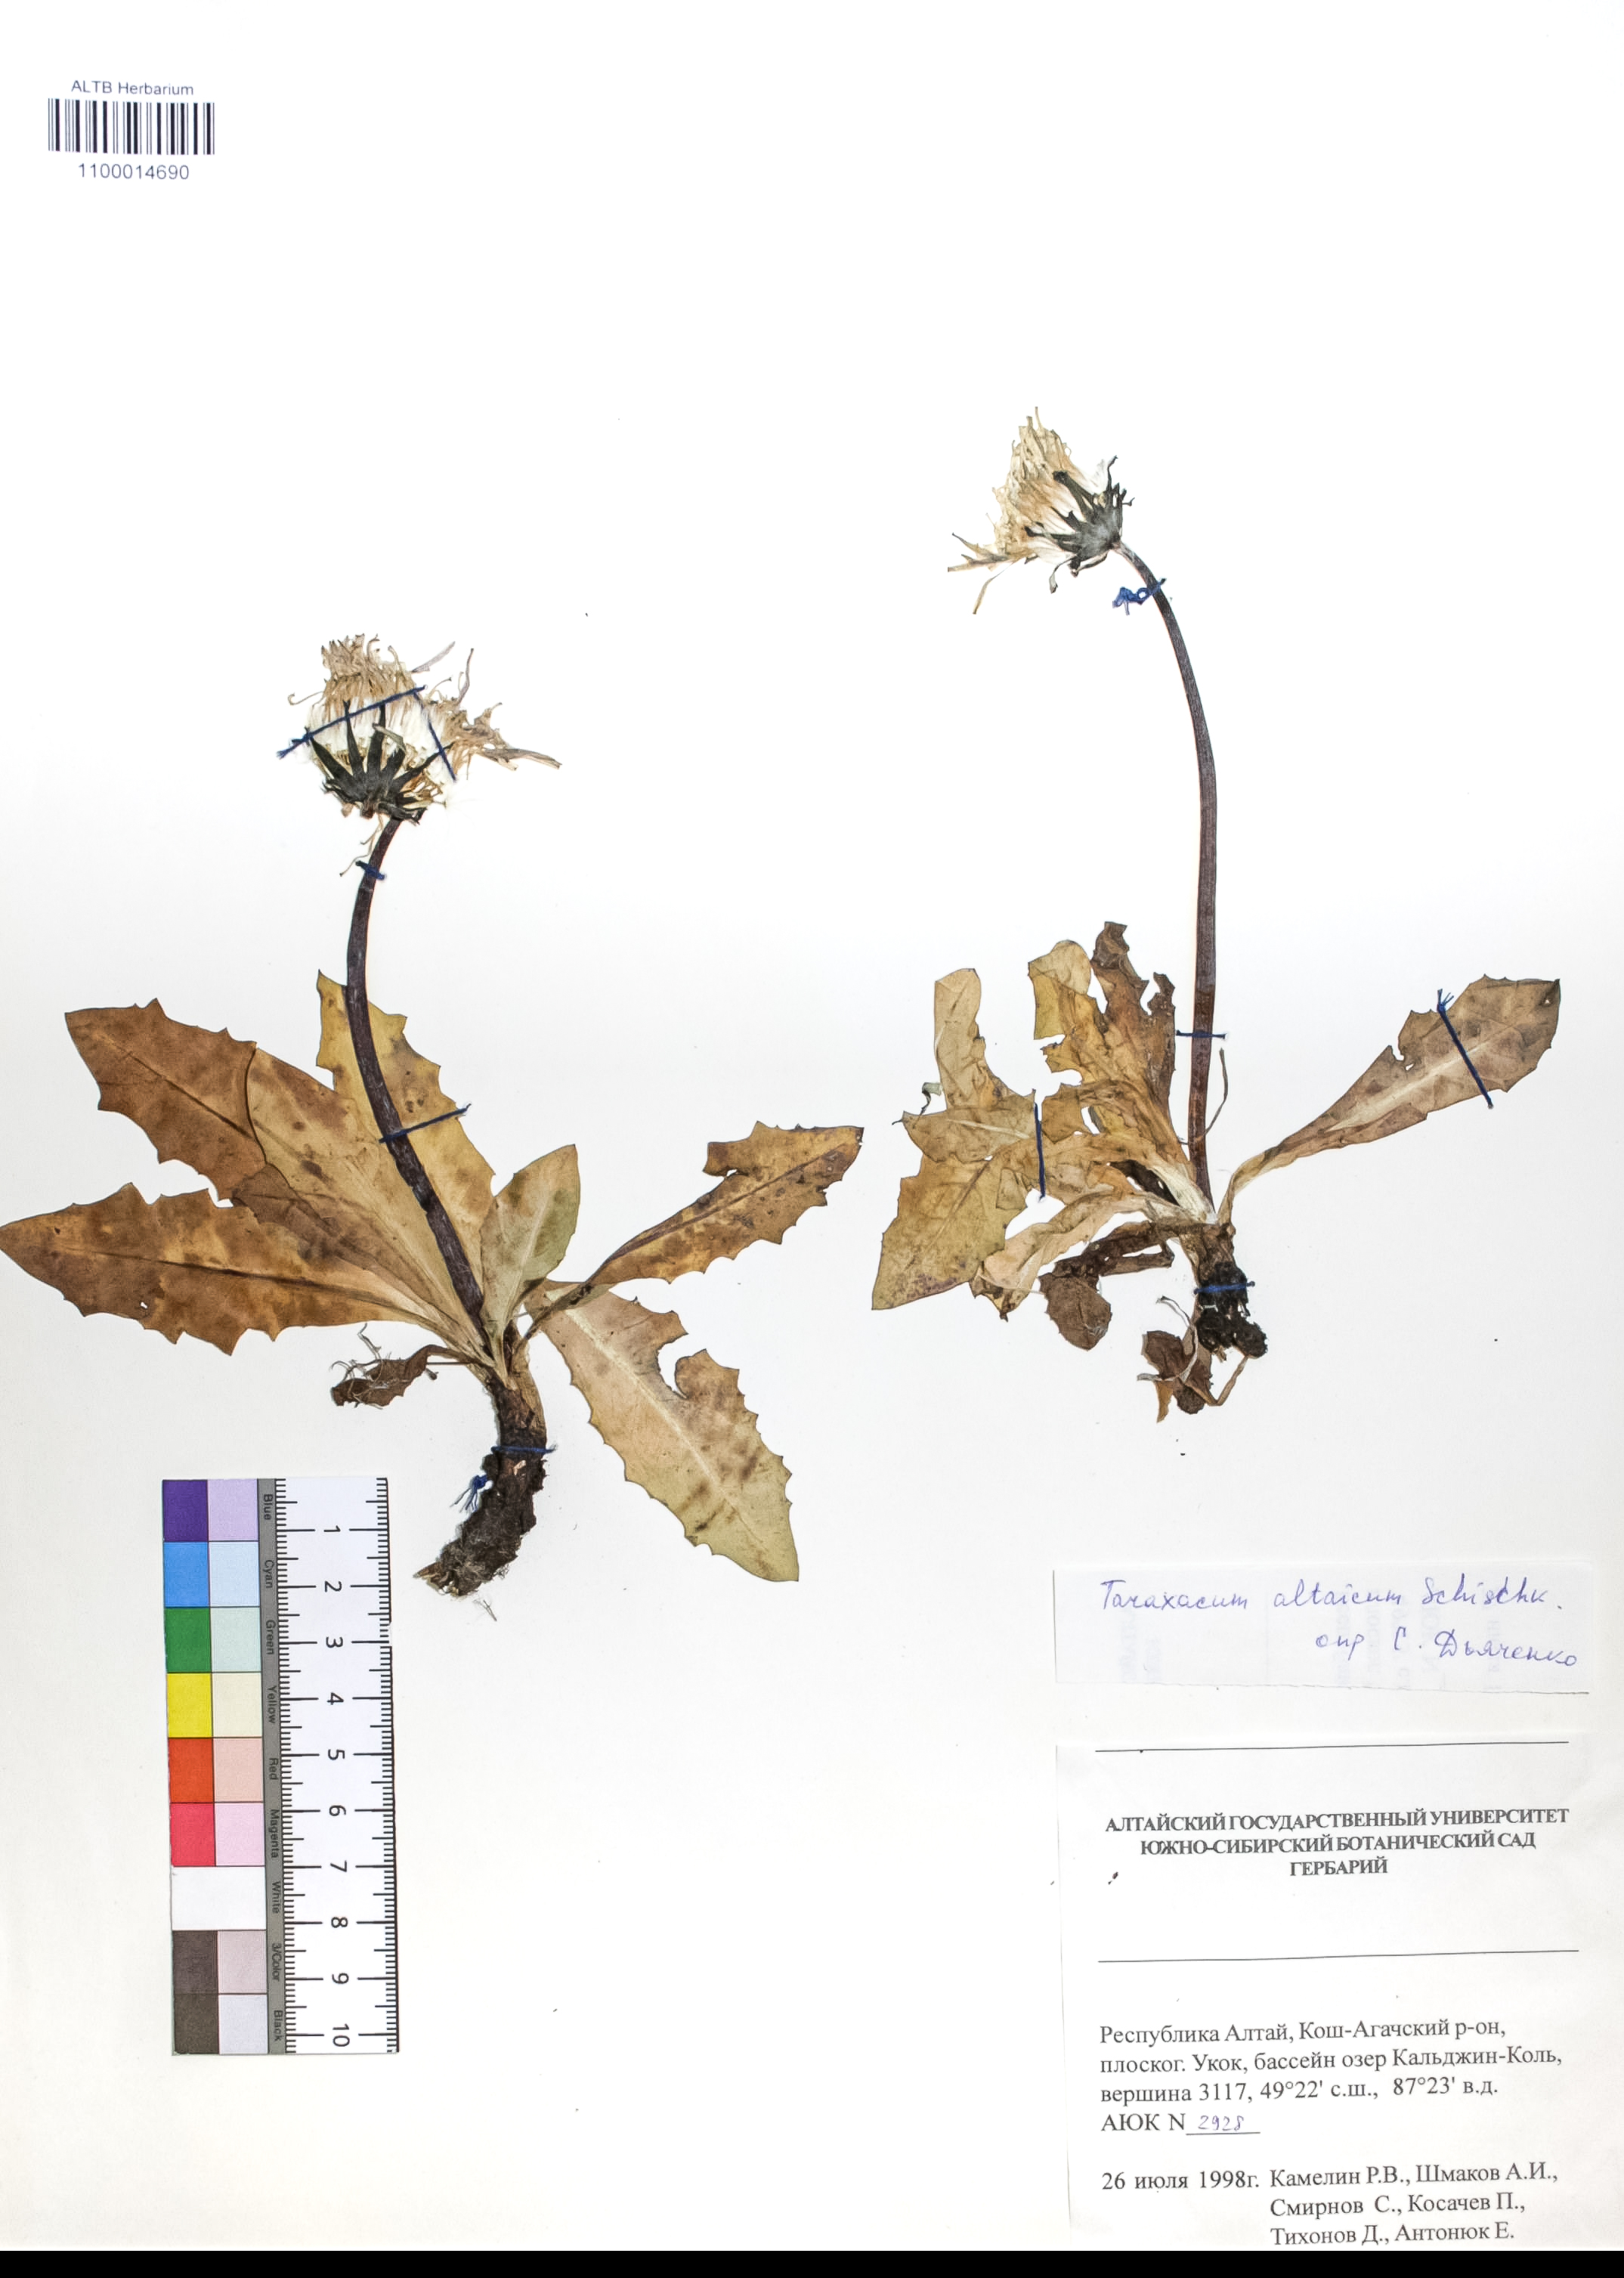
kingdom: Plantae
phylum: Tracheophyta
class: Magnoliopsida
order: Asterales
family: Asteraceae
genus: Taraxacum
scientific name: Taraxacum ceratophorum
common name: Horn-bearing dandelion
